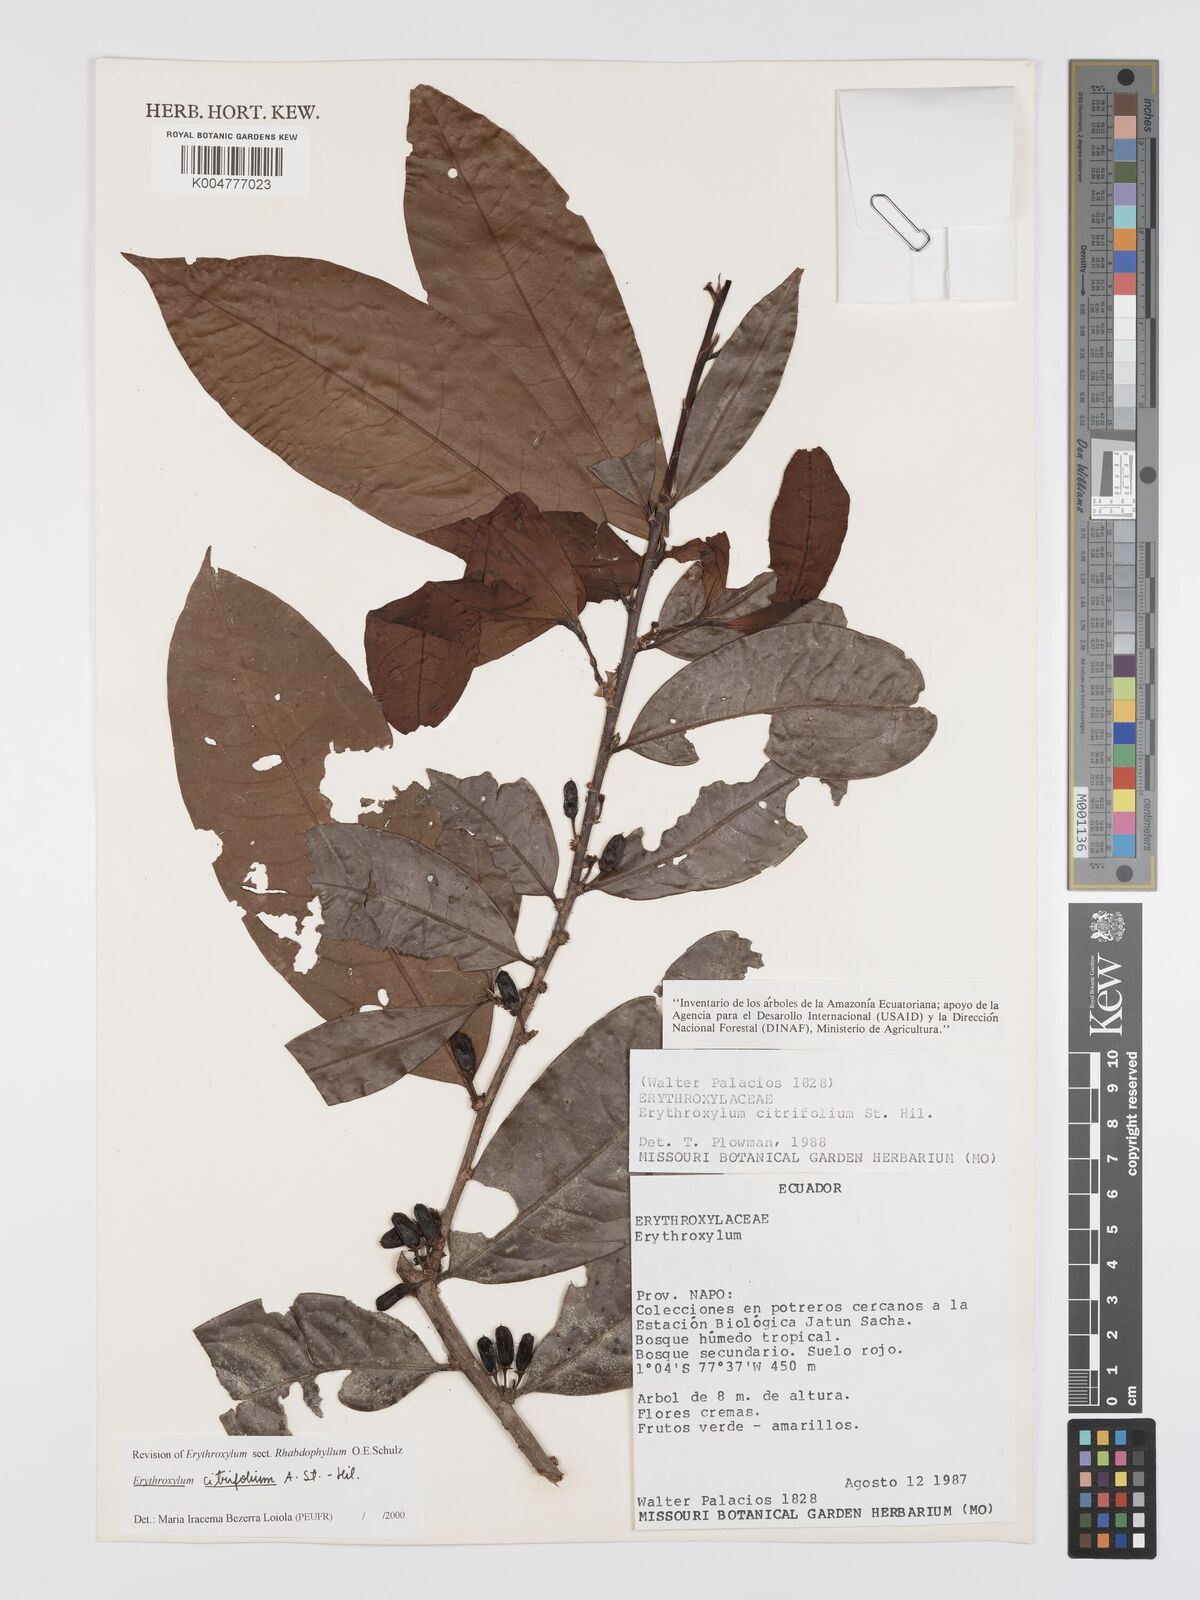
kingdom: Plantae
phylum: Tracheophyta
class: Magnoliopsida
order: Malpighiales
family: Erythroxylaceae
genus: Erythroxylum
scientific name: Erythroxylum citrifolium
